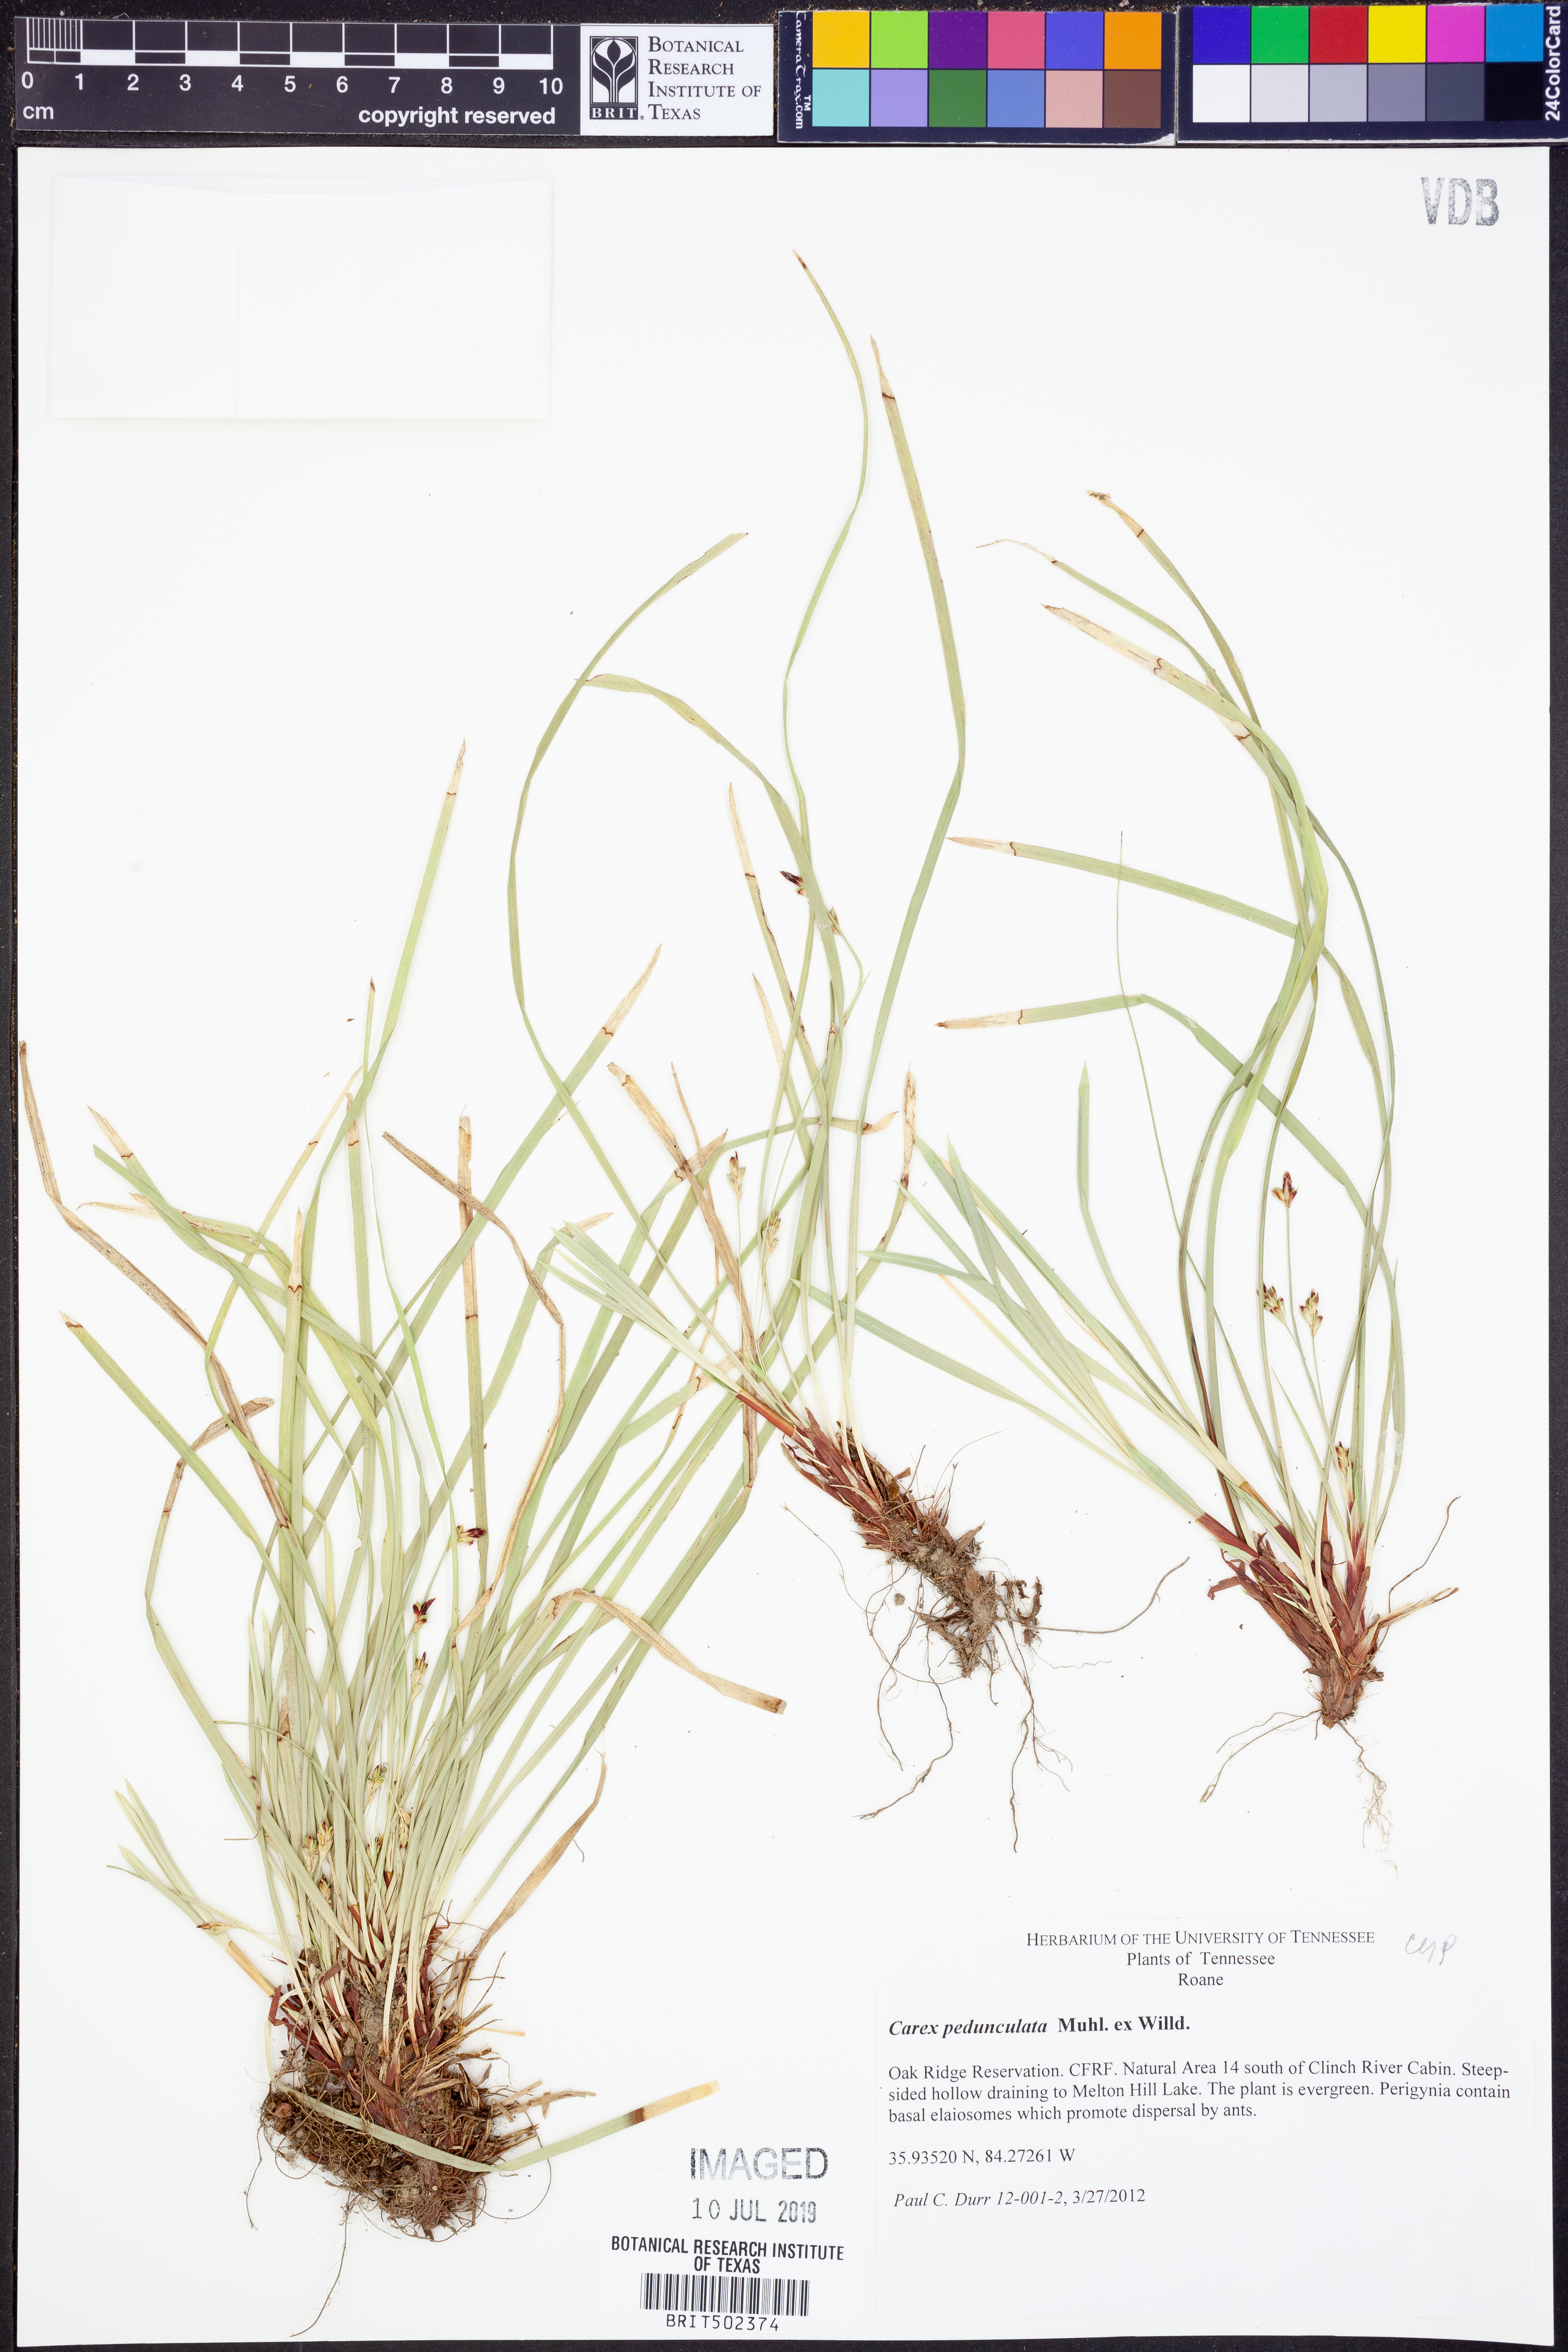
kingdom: Plantae
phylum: Tracheophyta
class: Liliopsida
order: Poales
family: Cyperaceae
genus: Carex
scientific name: Carex pedunculata
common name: Pedunculate sedge
